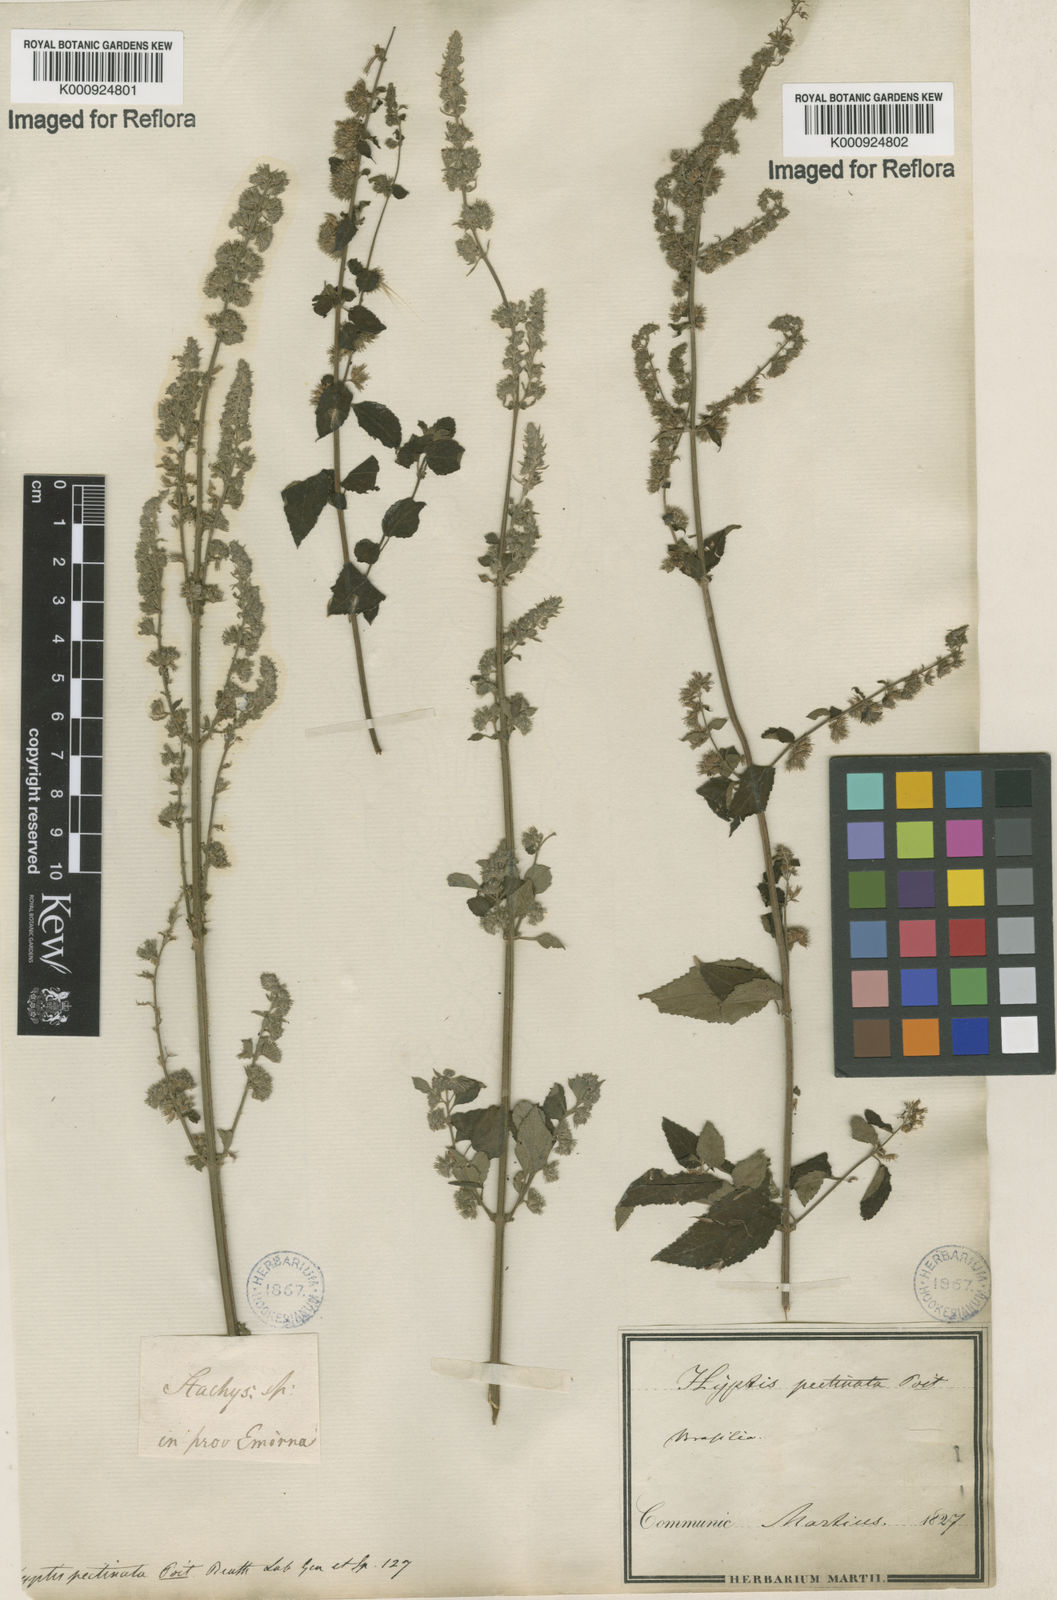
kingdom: Plantae
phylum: Tracheophyta
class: Magnoliopsida
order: Lamiales
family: Lamiaceae
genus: Mesosphaerum
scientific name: Mesosphaerum pectinatum
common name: Comb hyptis
